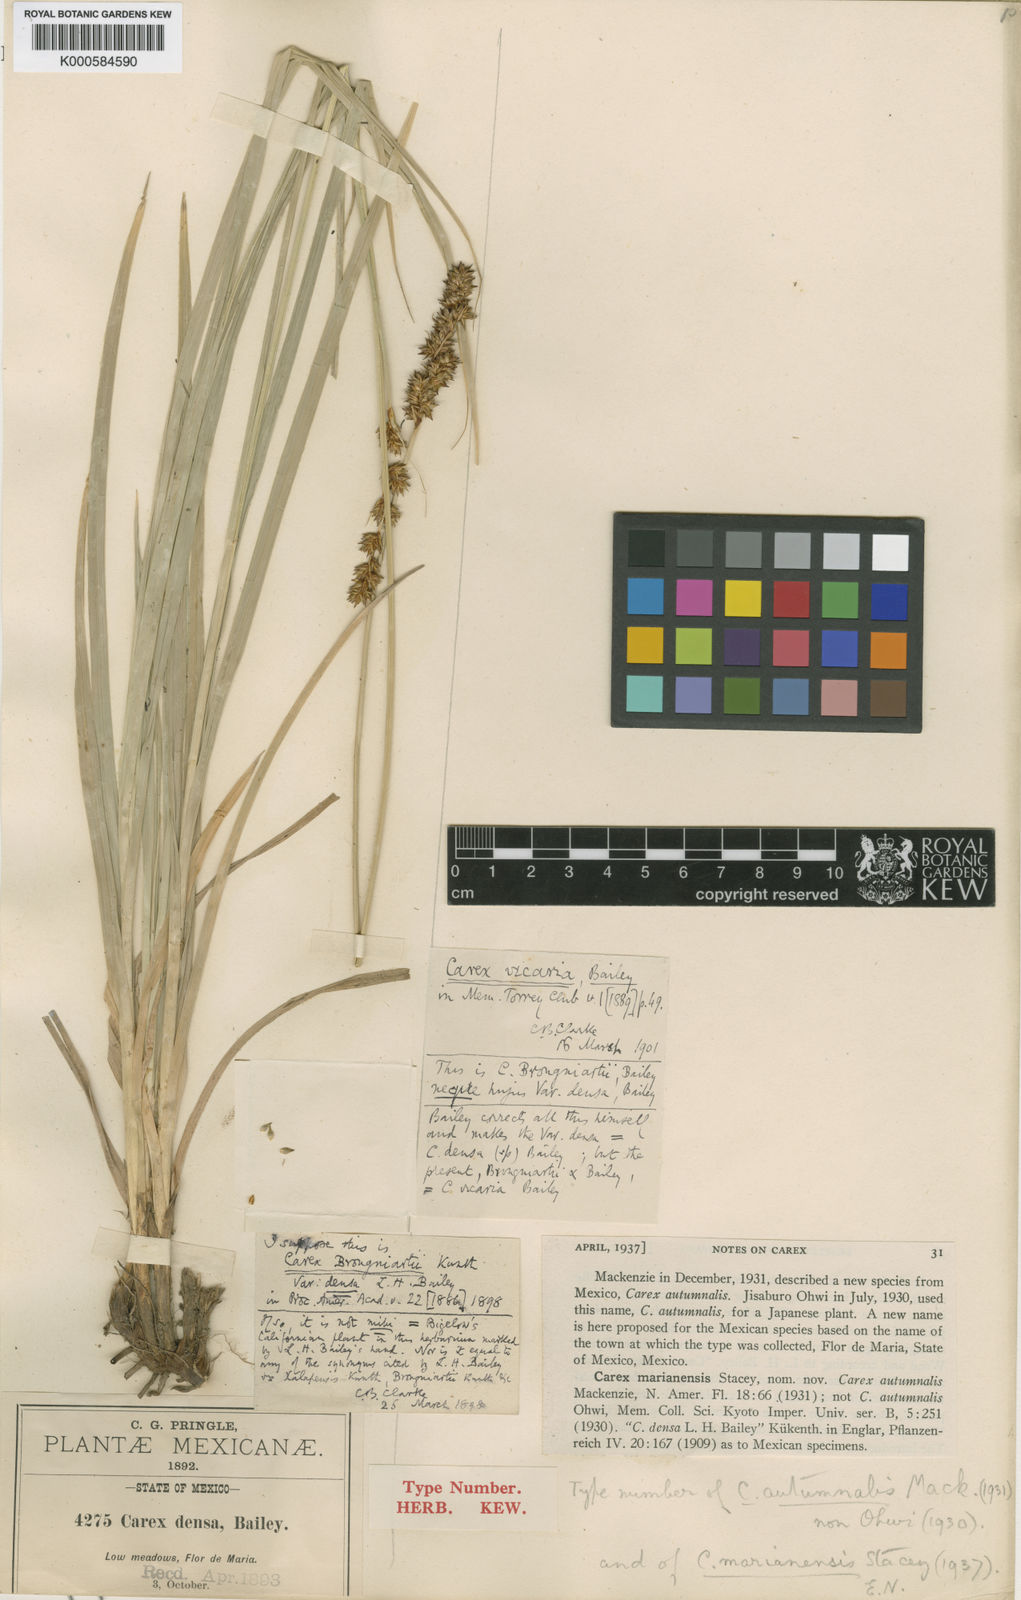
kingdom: Plantae
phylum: Tracheophyta
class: Liliopsida
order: Poales
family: Cyperaceae
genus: Carex
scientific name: Carex marianensis
